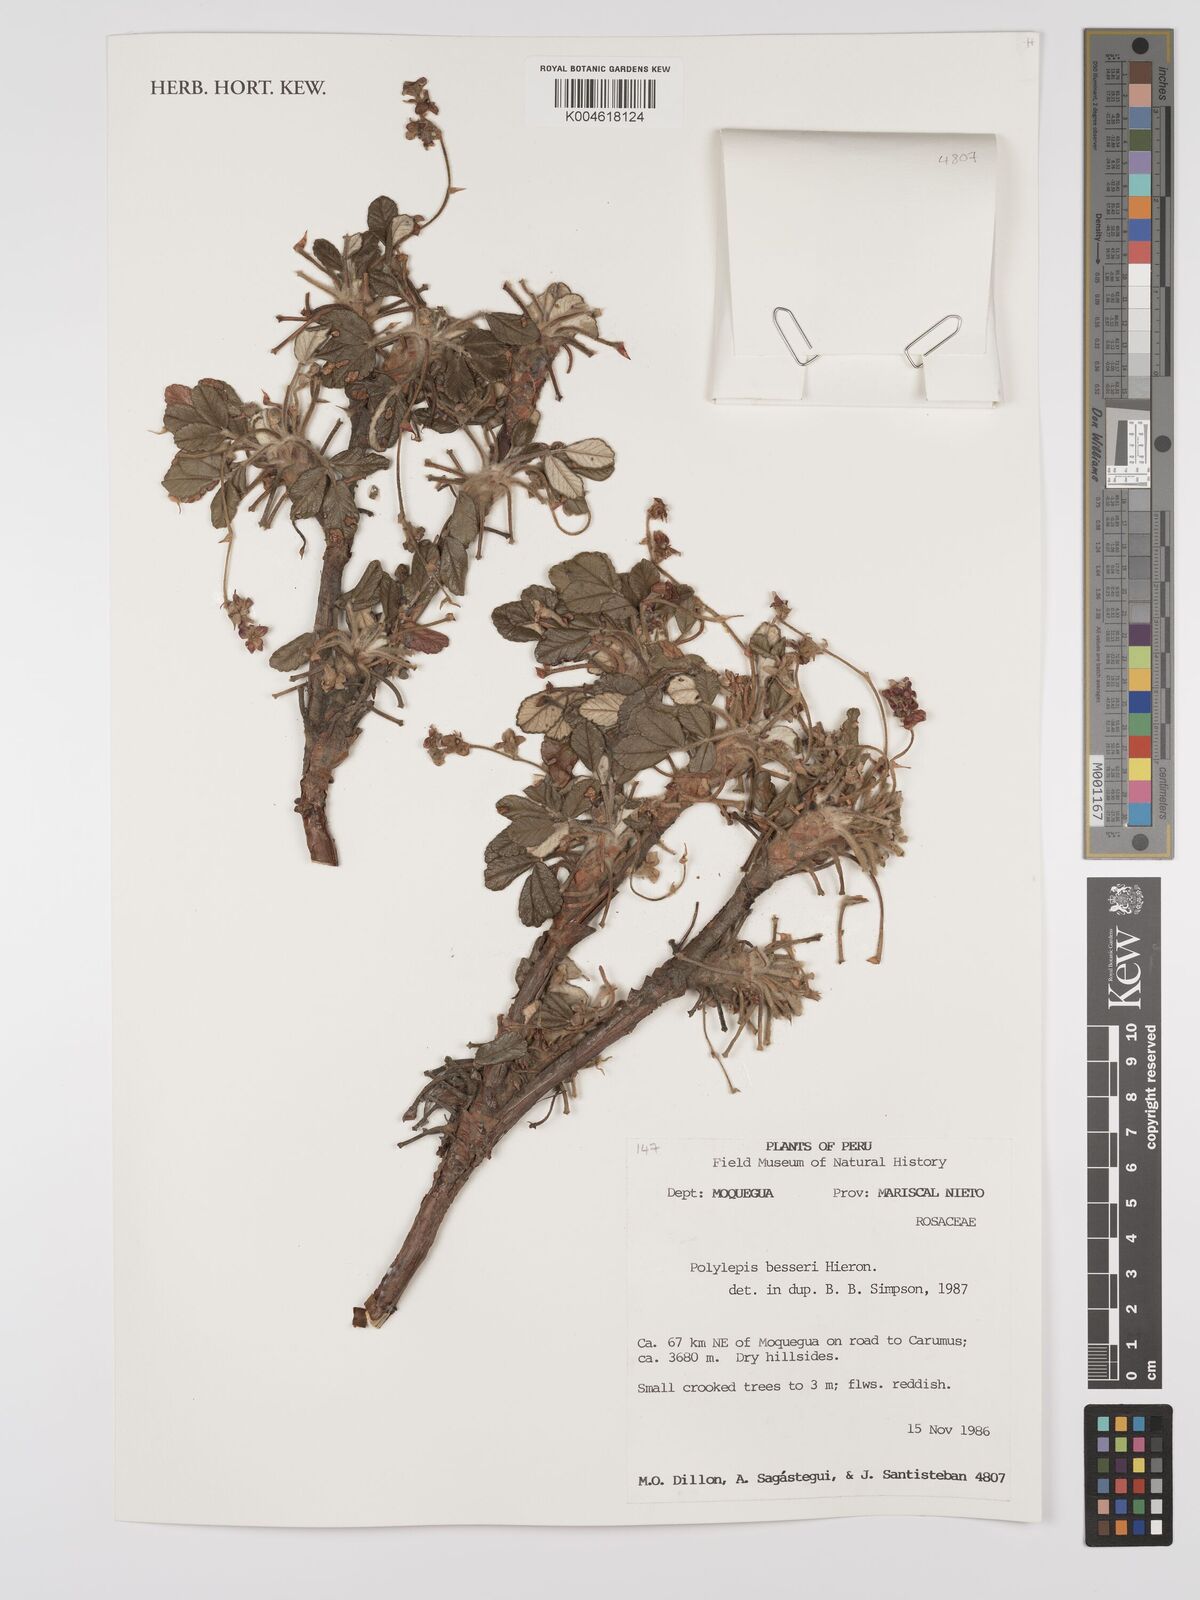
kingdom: Plantae
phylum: Tracheophyta
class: Magnoliopsida
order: Rosales
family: Rosaceae
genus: Polylepis
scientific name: Polylepis
